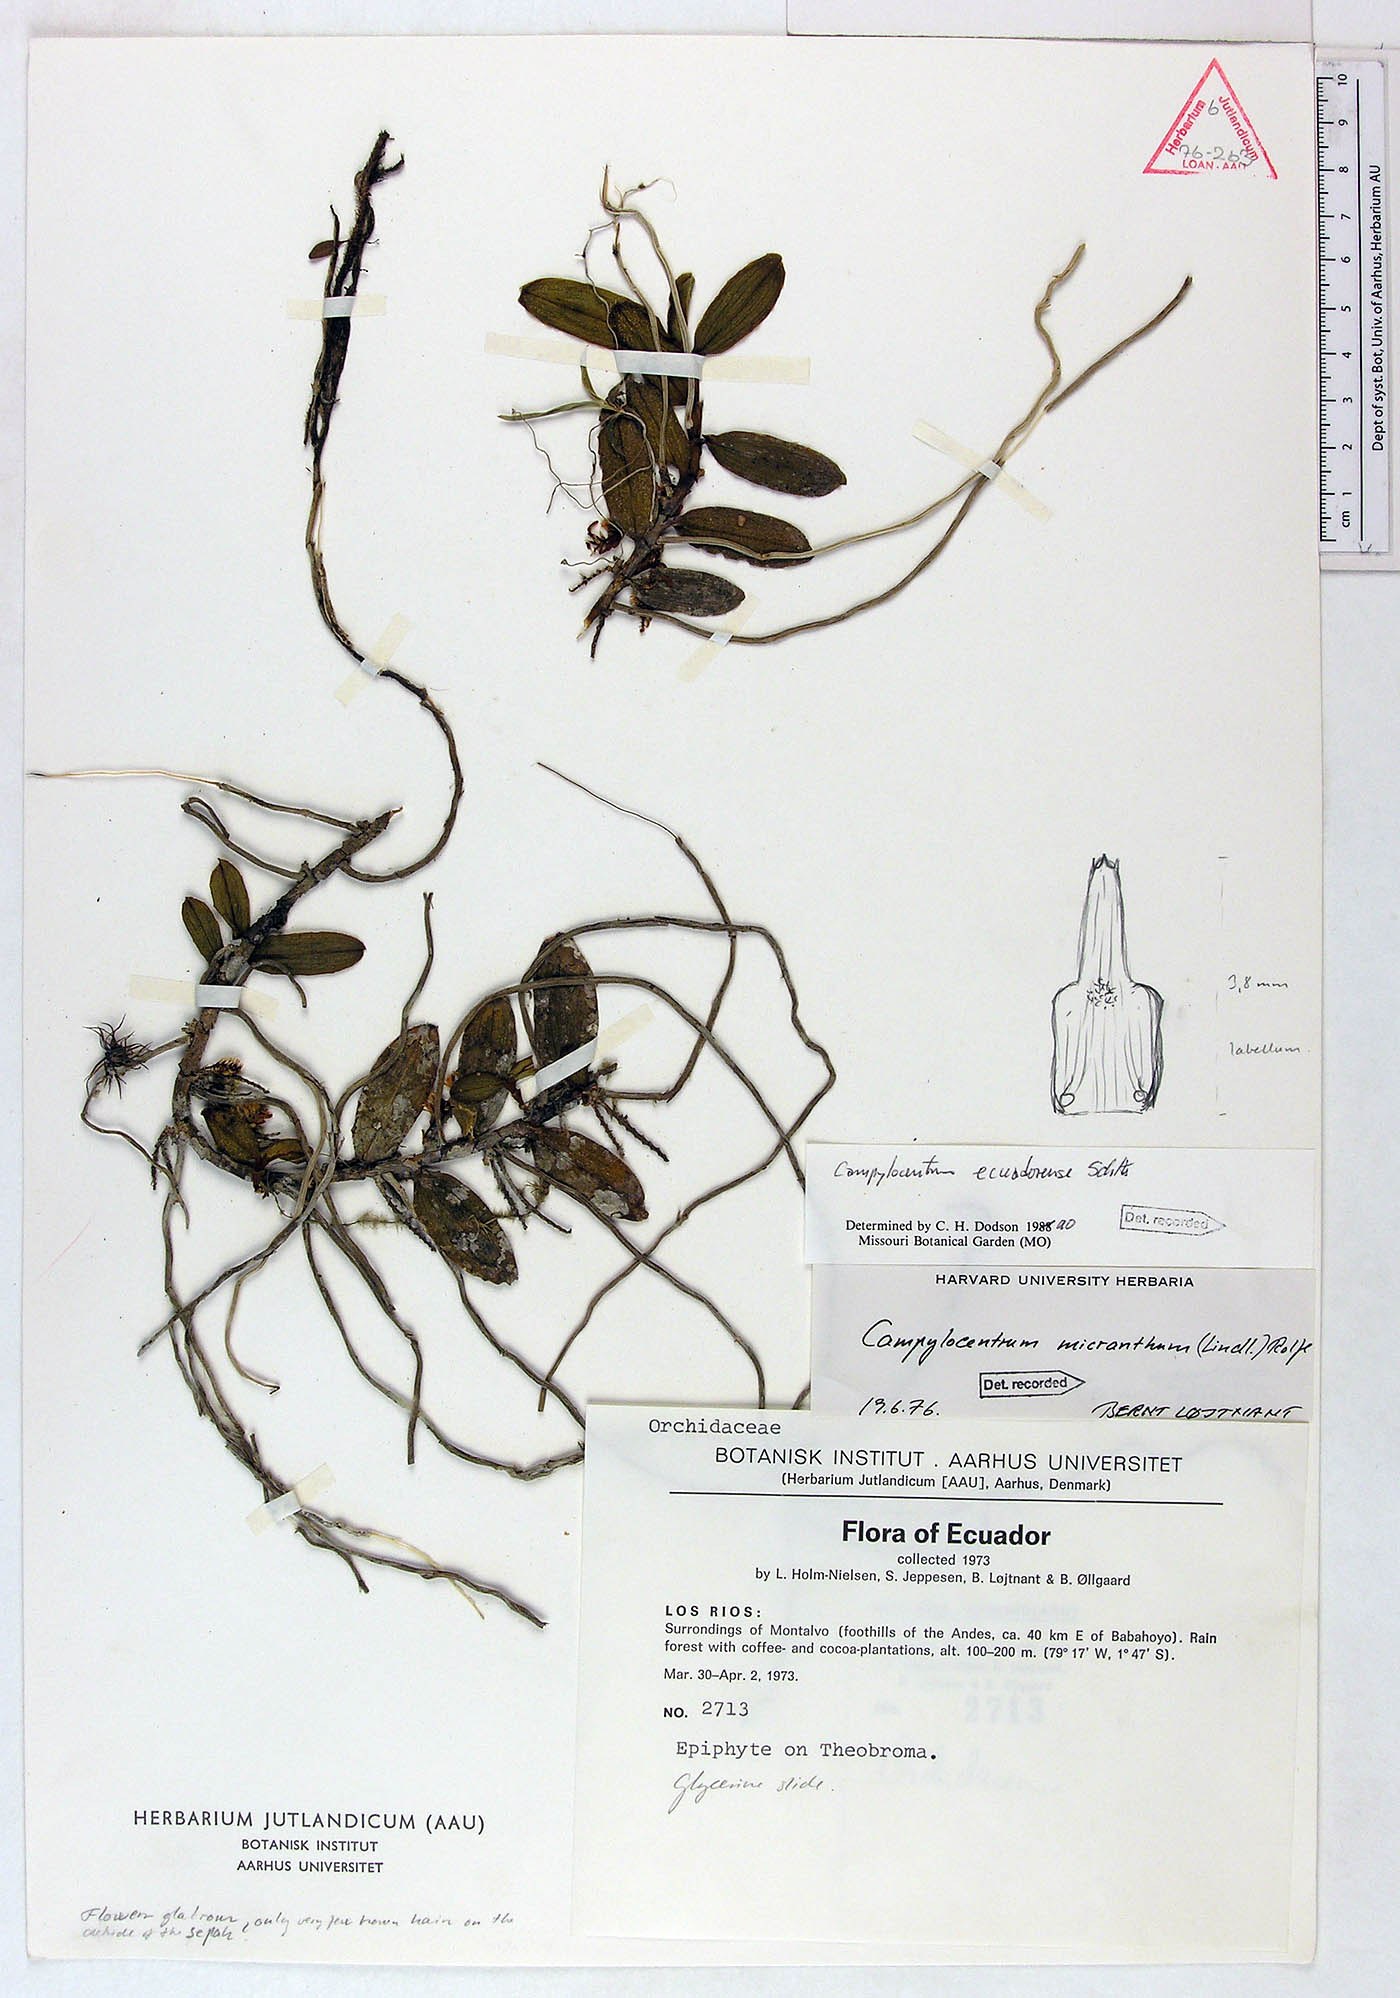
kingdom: Plantae
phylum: Tracheophyta
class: Liliopsida
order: Asparagales
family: Orchidaceae
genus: Campylocentrum
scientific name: Campylocentrum ecuadorense
